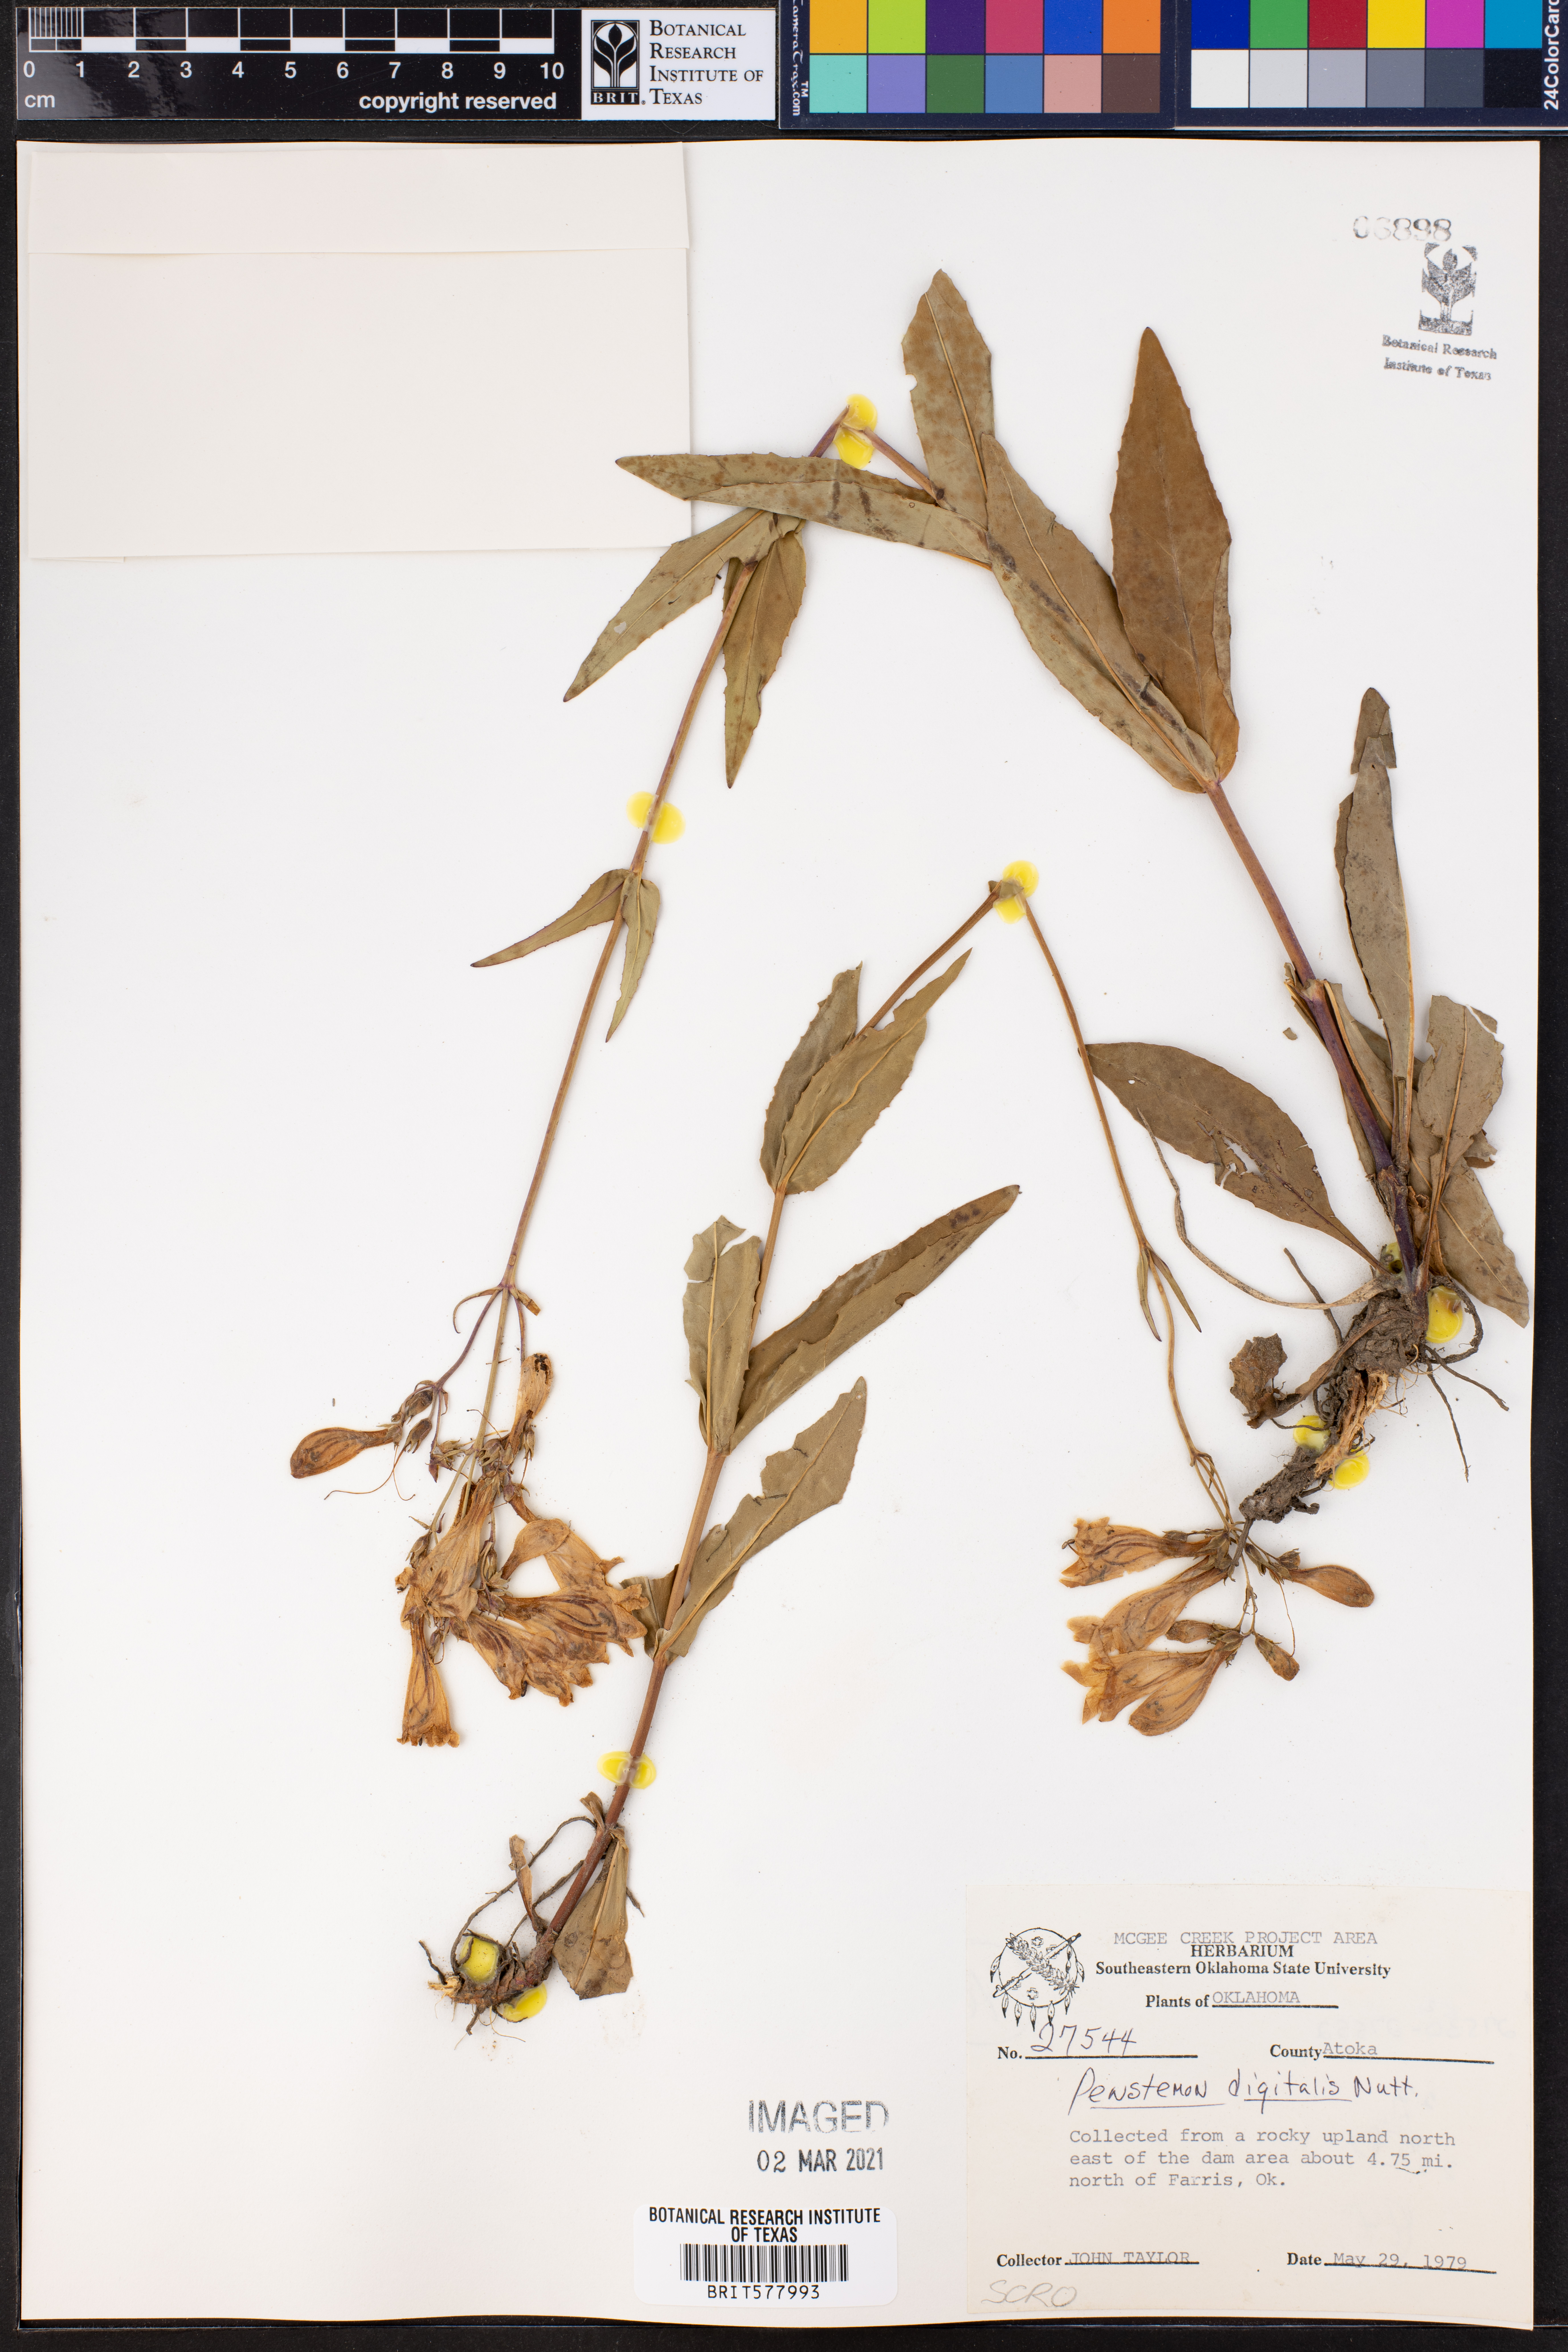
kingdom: Plantae
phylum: Tracheophyta
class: Magnoliopsida
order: Lamiales
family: Plantaginaceae
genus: Penstemon
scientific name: Penstemon digitalis
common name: Foxglove beardtongue
